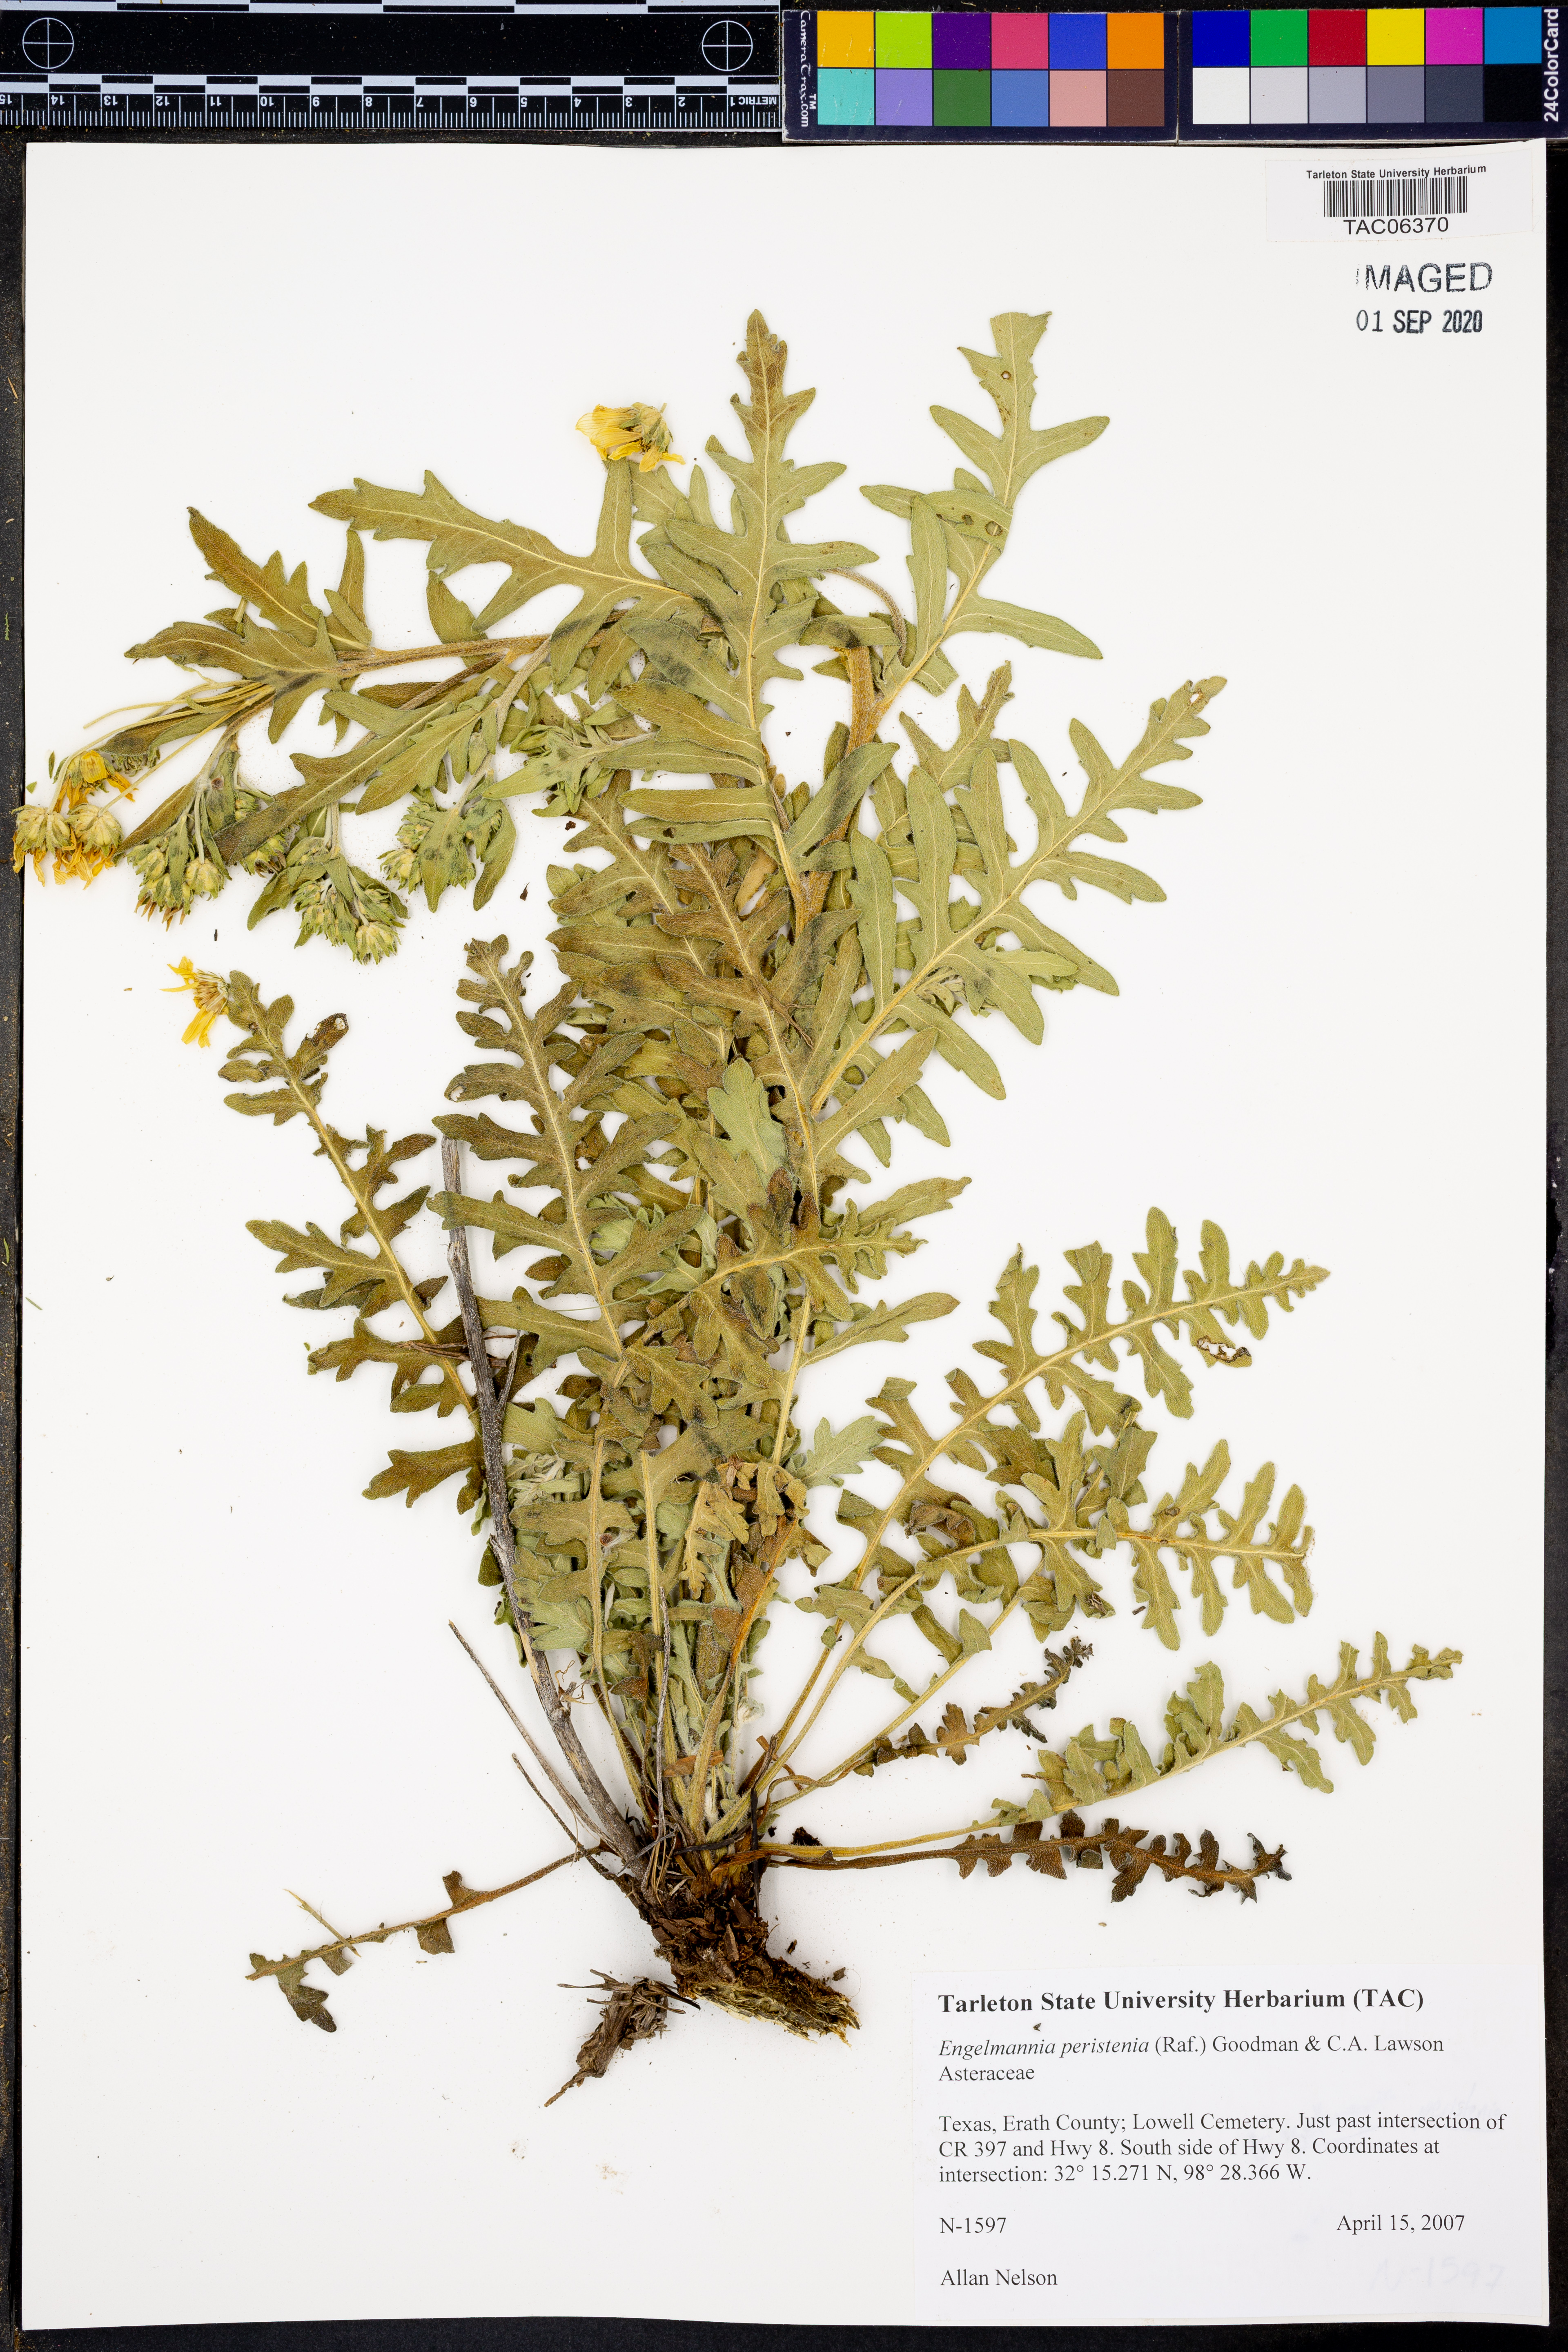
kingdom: Plantae
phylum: Tracheophyta
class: Magnoliopsida
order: Asterales
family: Asteraceae
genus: Engelmannia
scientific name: Engelmannia peristenia
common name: Engelmann's daisy
